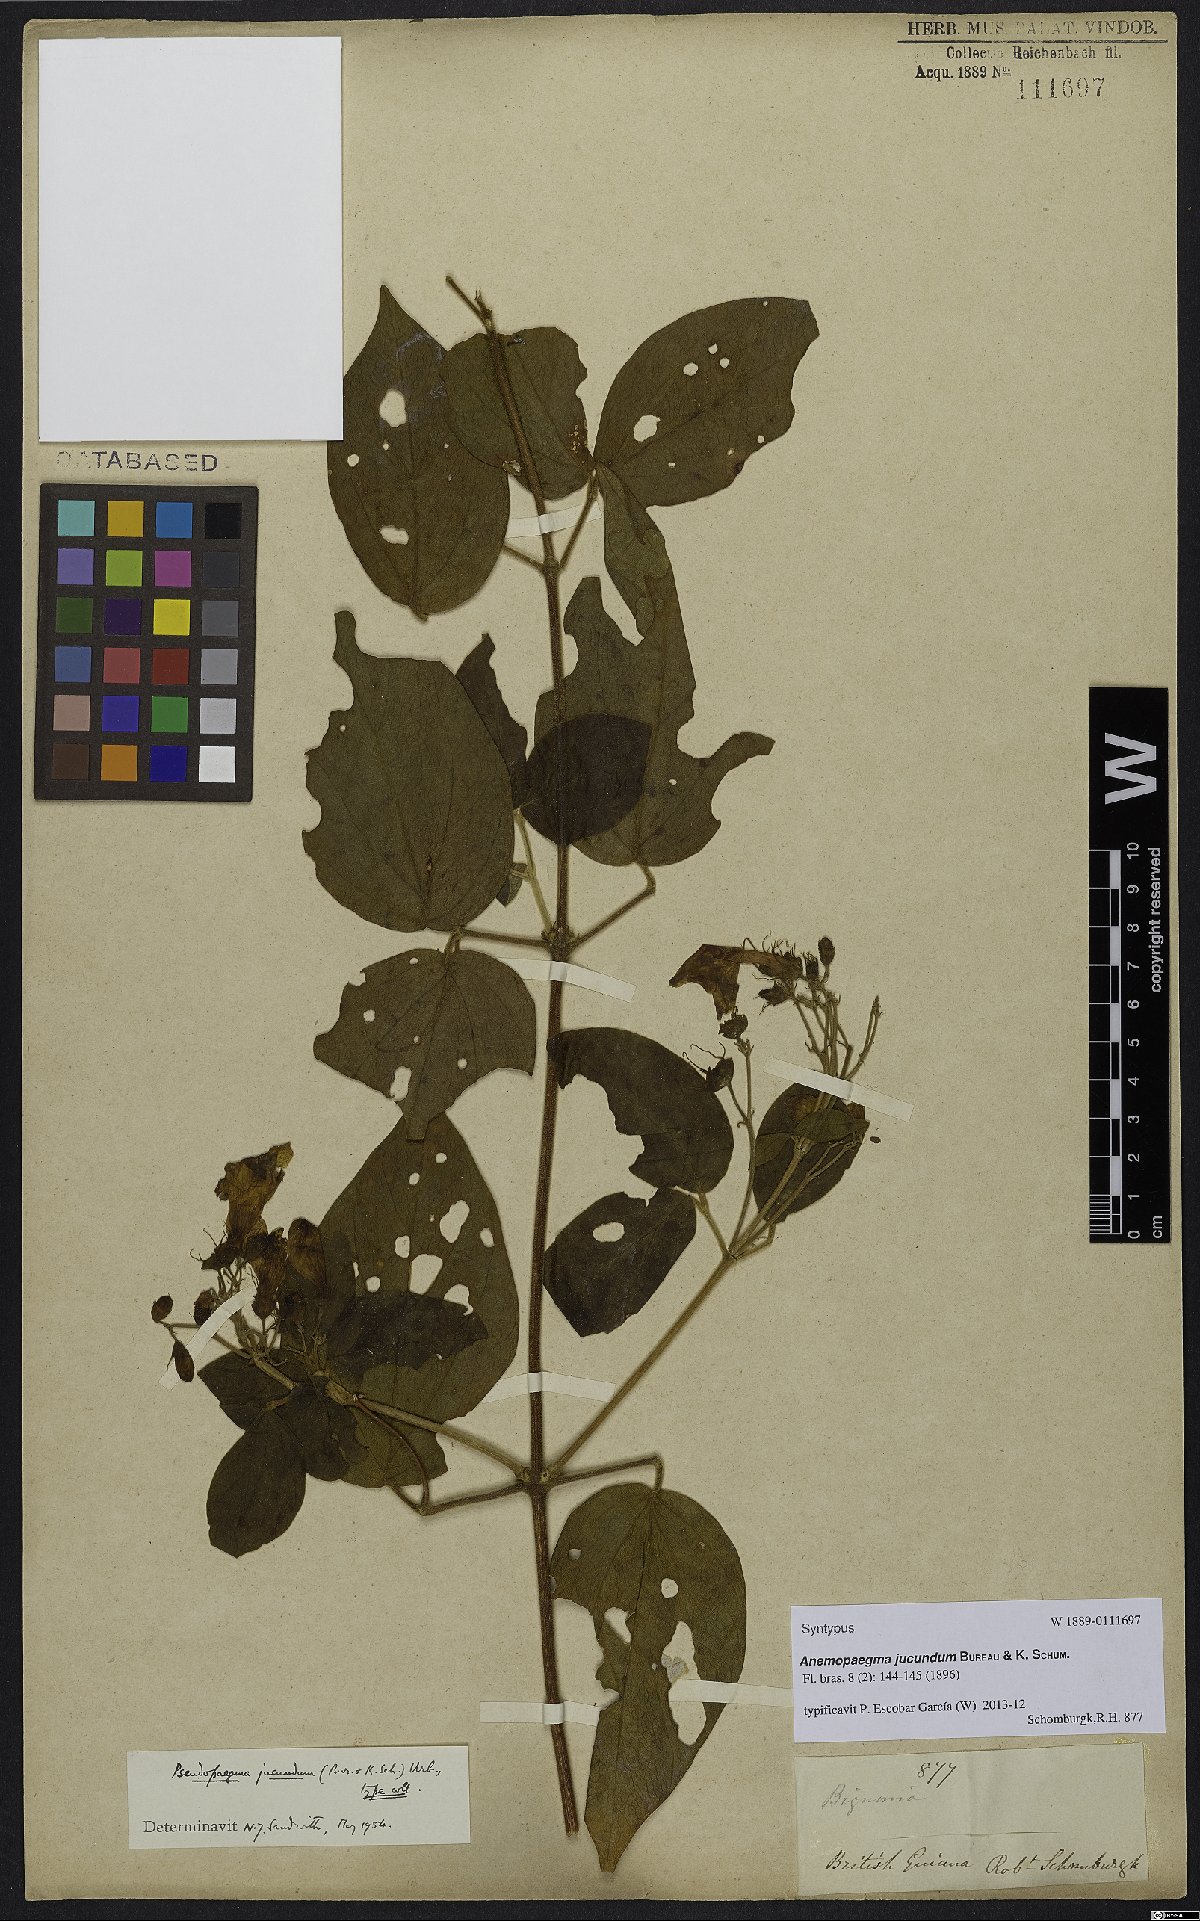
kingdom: Plantae
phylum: Tracheophyta
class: Magnoliopsida
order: Lamiales
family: Bignoniaceae
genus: Anemopaegma
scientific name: Anemopaegma jucundum
